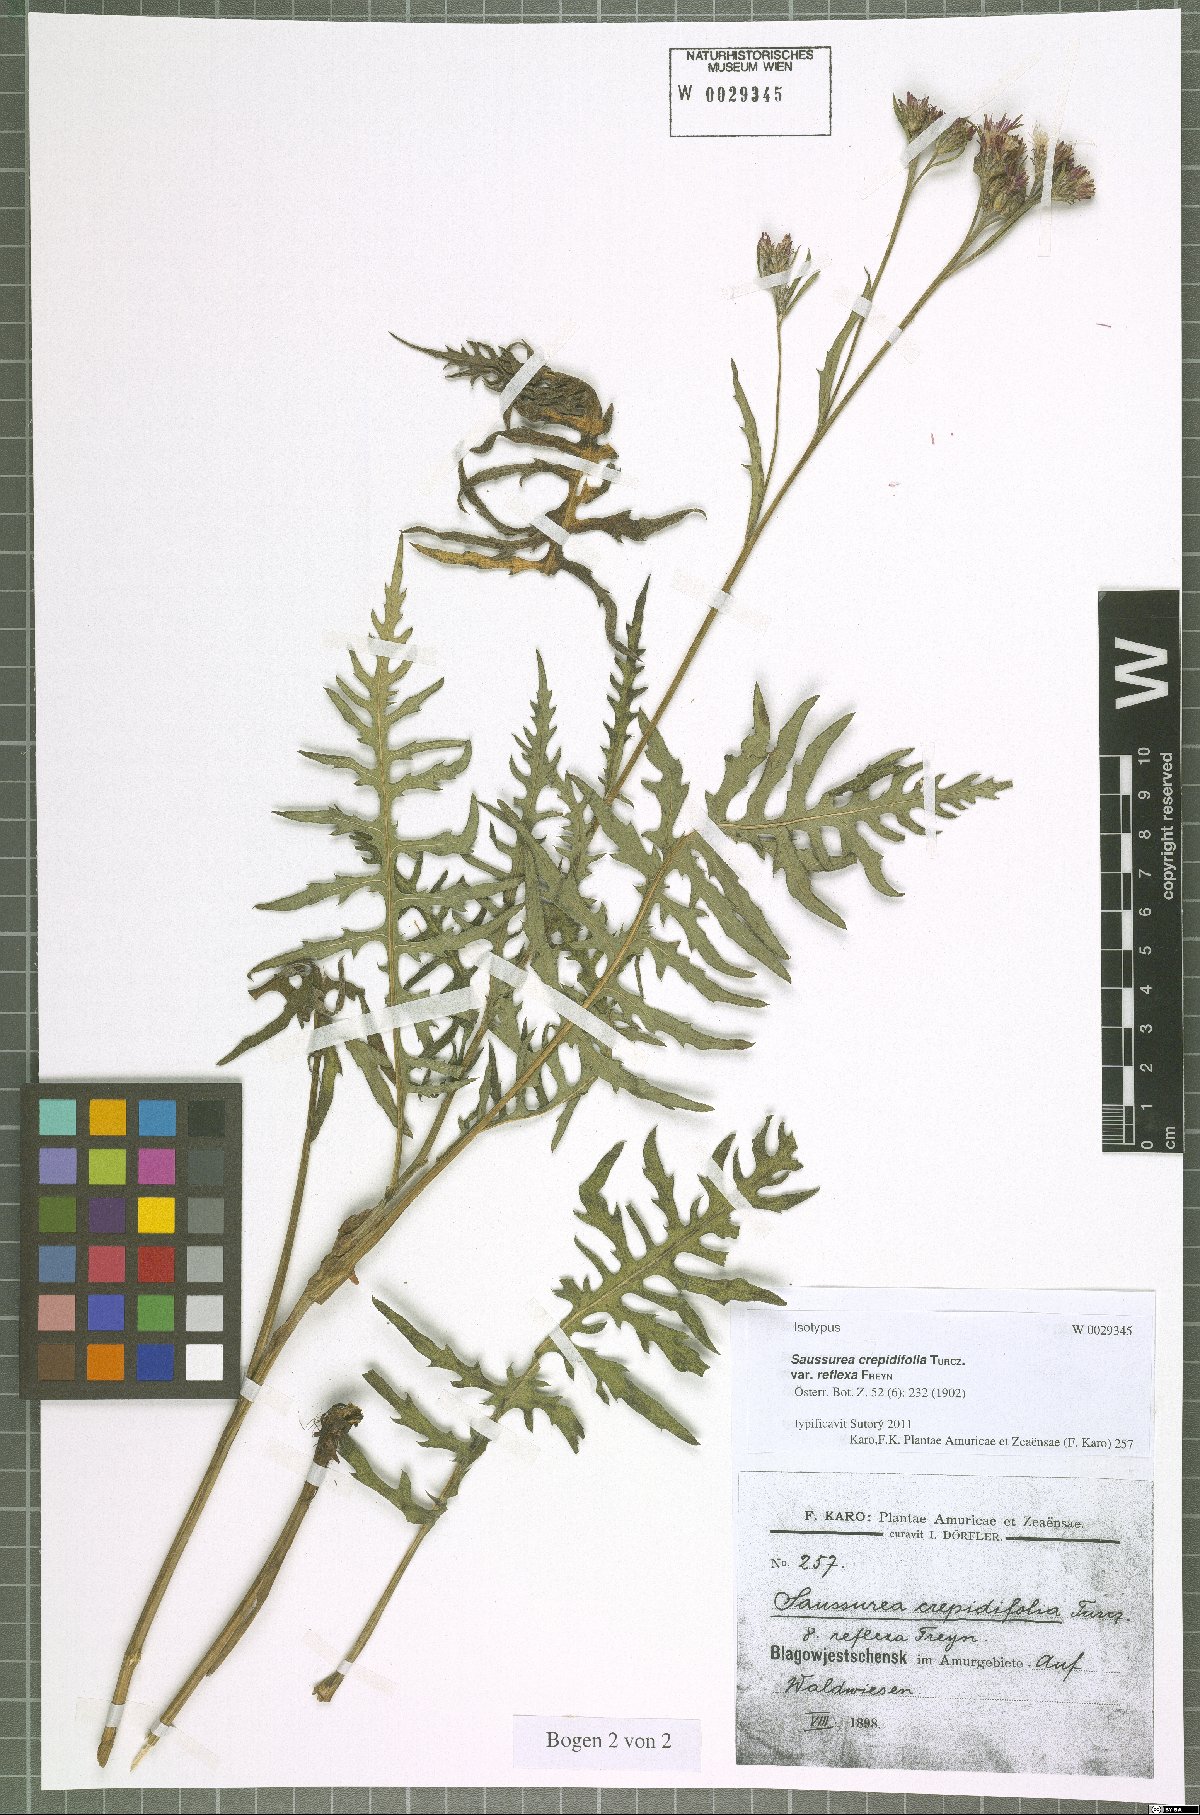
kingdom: Plantae
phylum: Tracheophyta
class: Magnoliopsida
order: Asterales
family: Asteraceae
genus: Saussurea
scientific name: Saussurea runcinata
